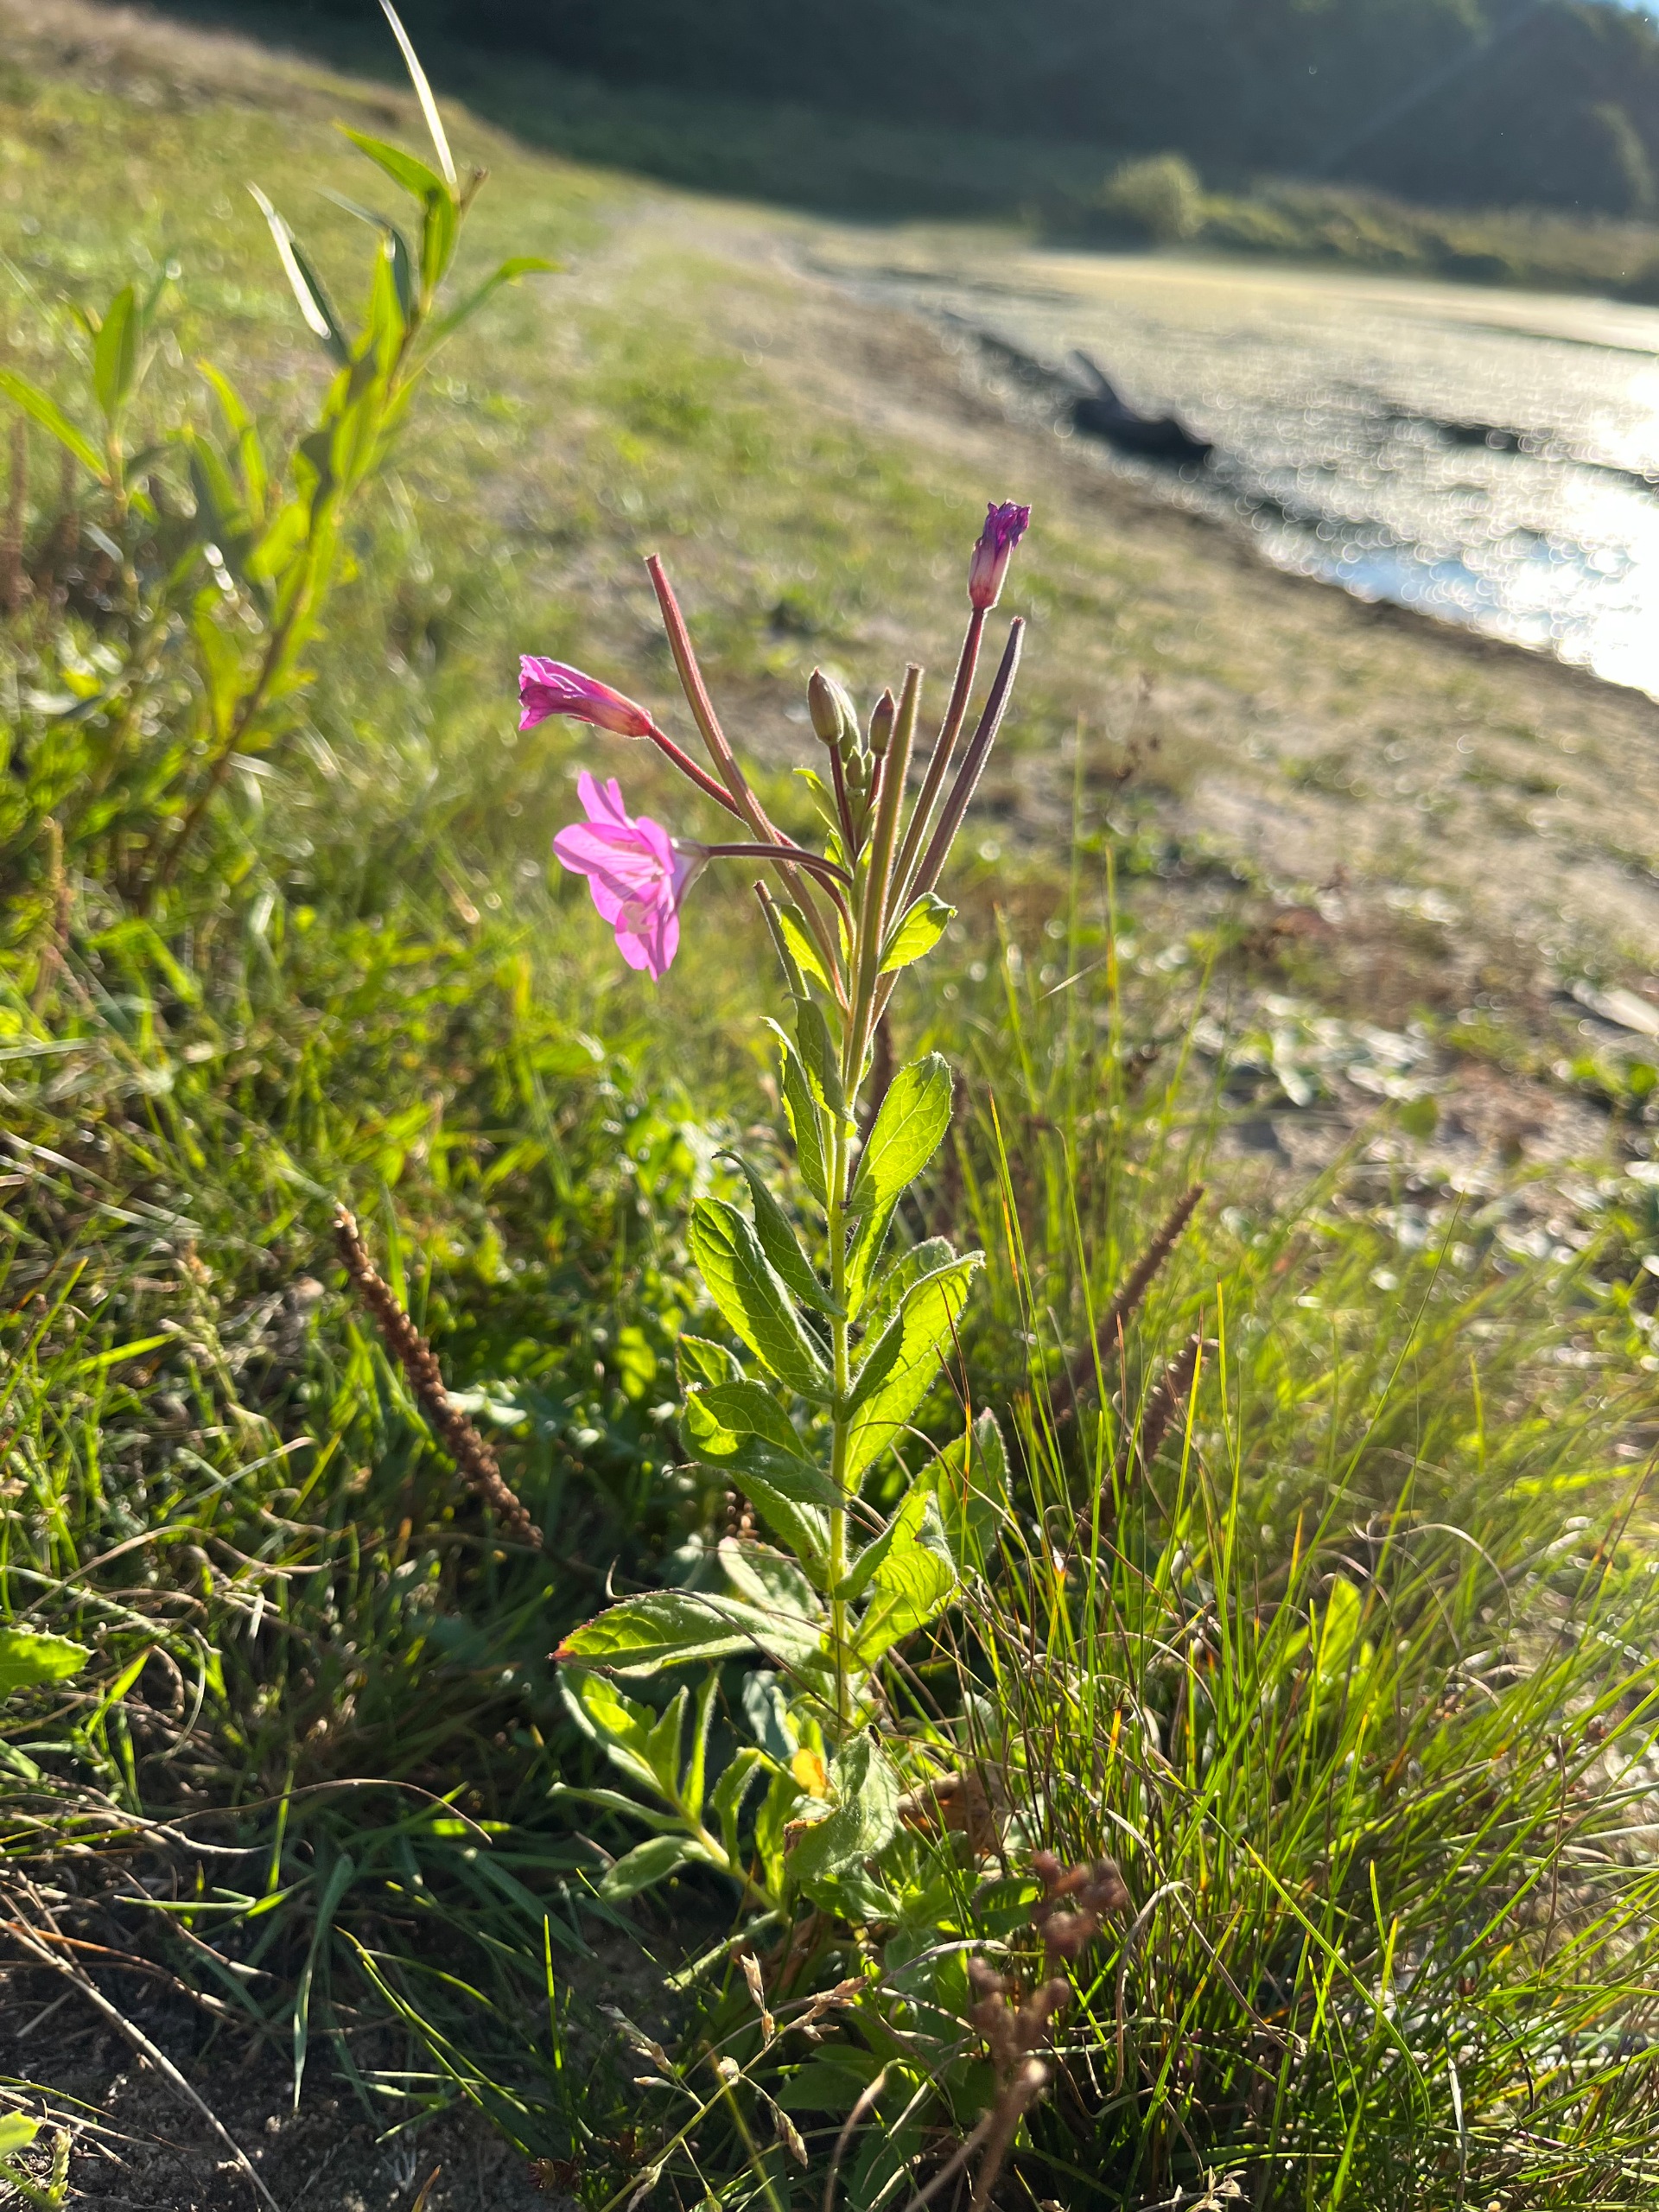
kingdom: Plantae
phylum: Tracheophyta
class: Magnoliopsida
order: Myrtales
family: Onagraceae
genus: Epilobium
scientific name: Epilobium hirsutum
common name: Lådden dueurt
